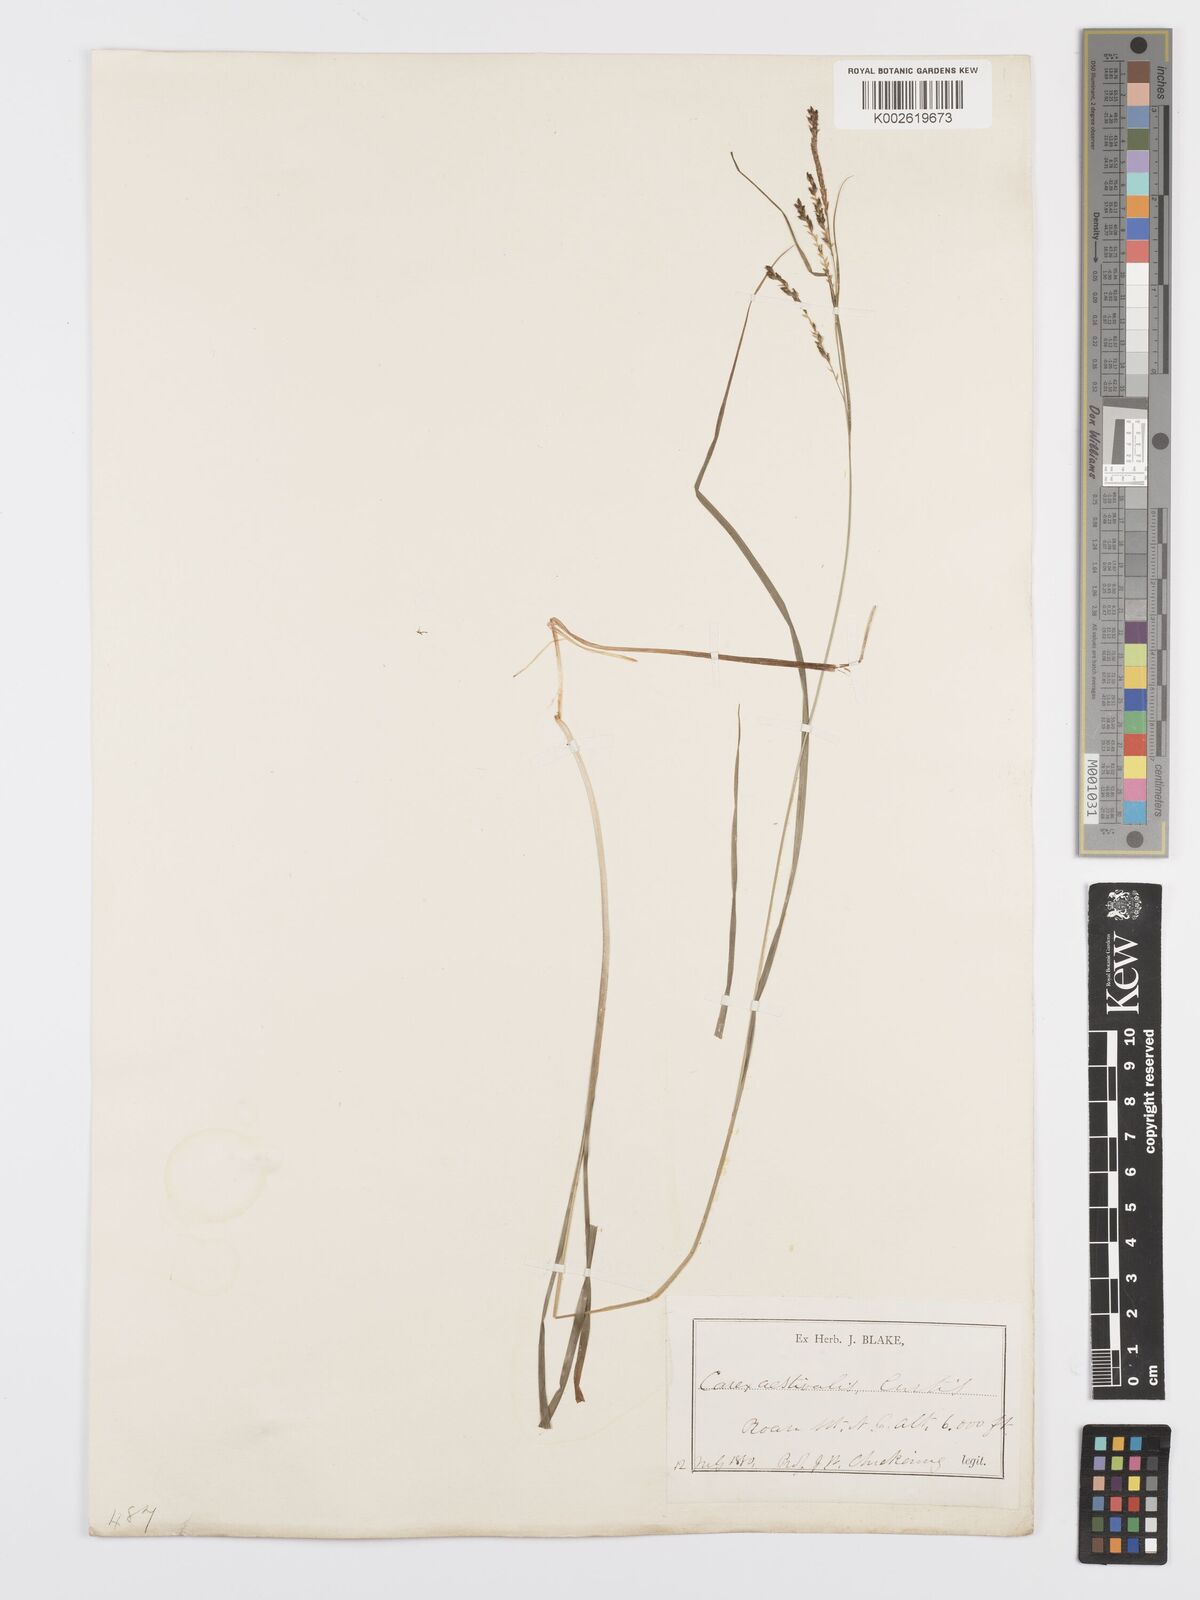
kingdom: Plantae
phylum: Tracheophyta
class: Liliopsida
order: Poales
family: Cyperaceae
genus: Carex
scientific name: Carex aestivalis
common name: Summer sedge
